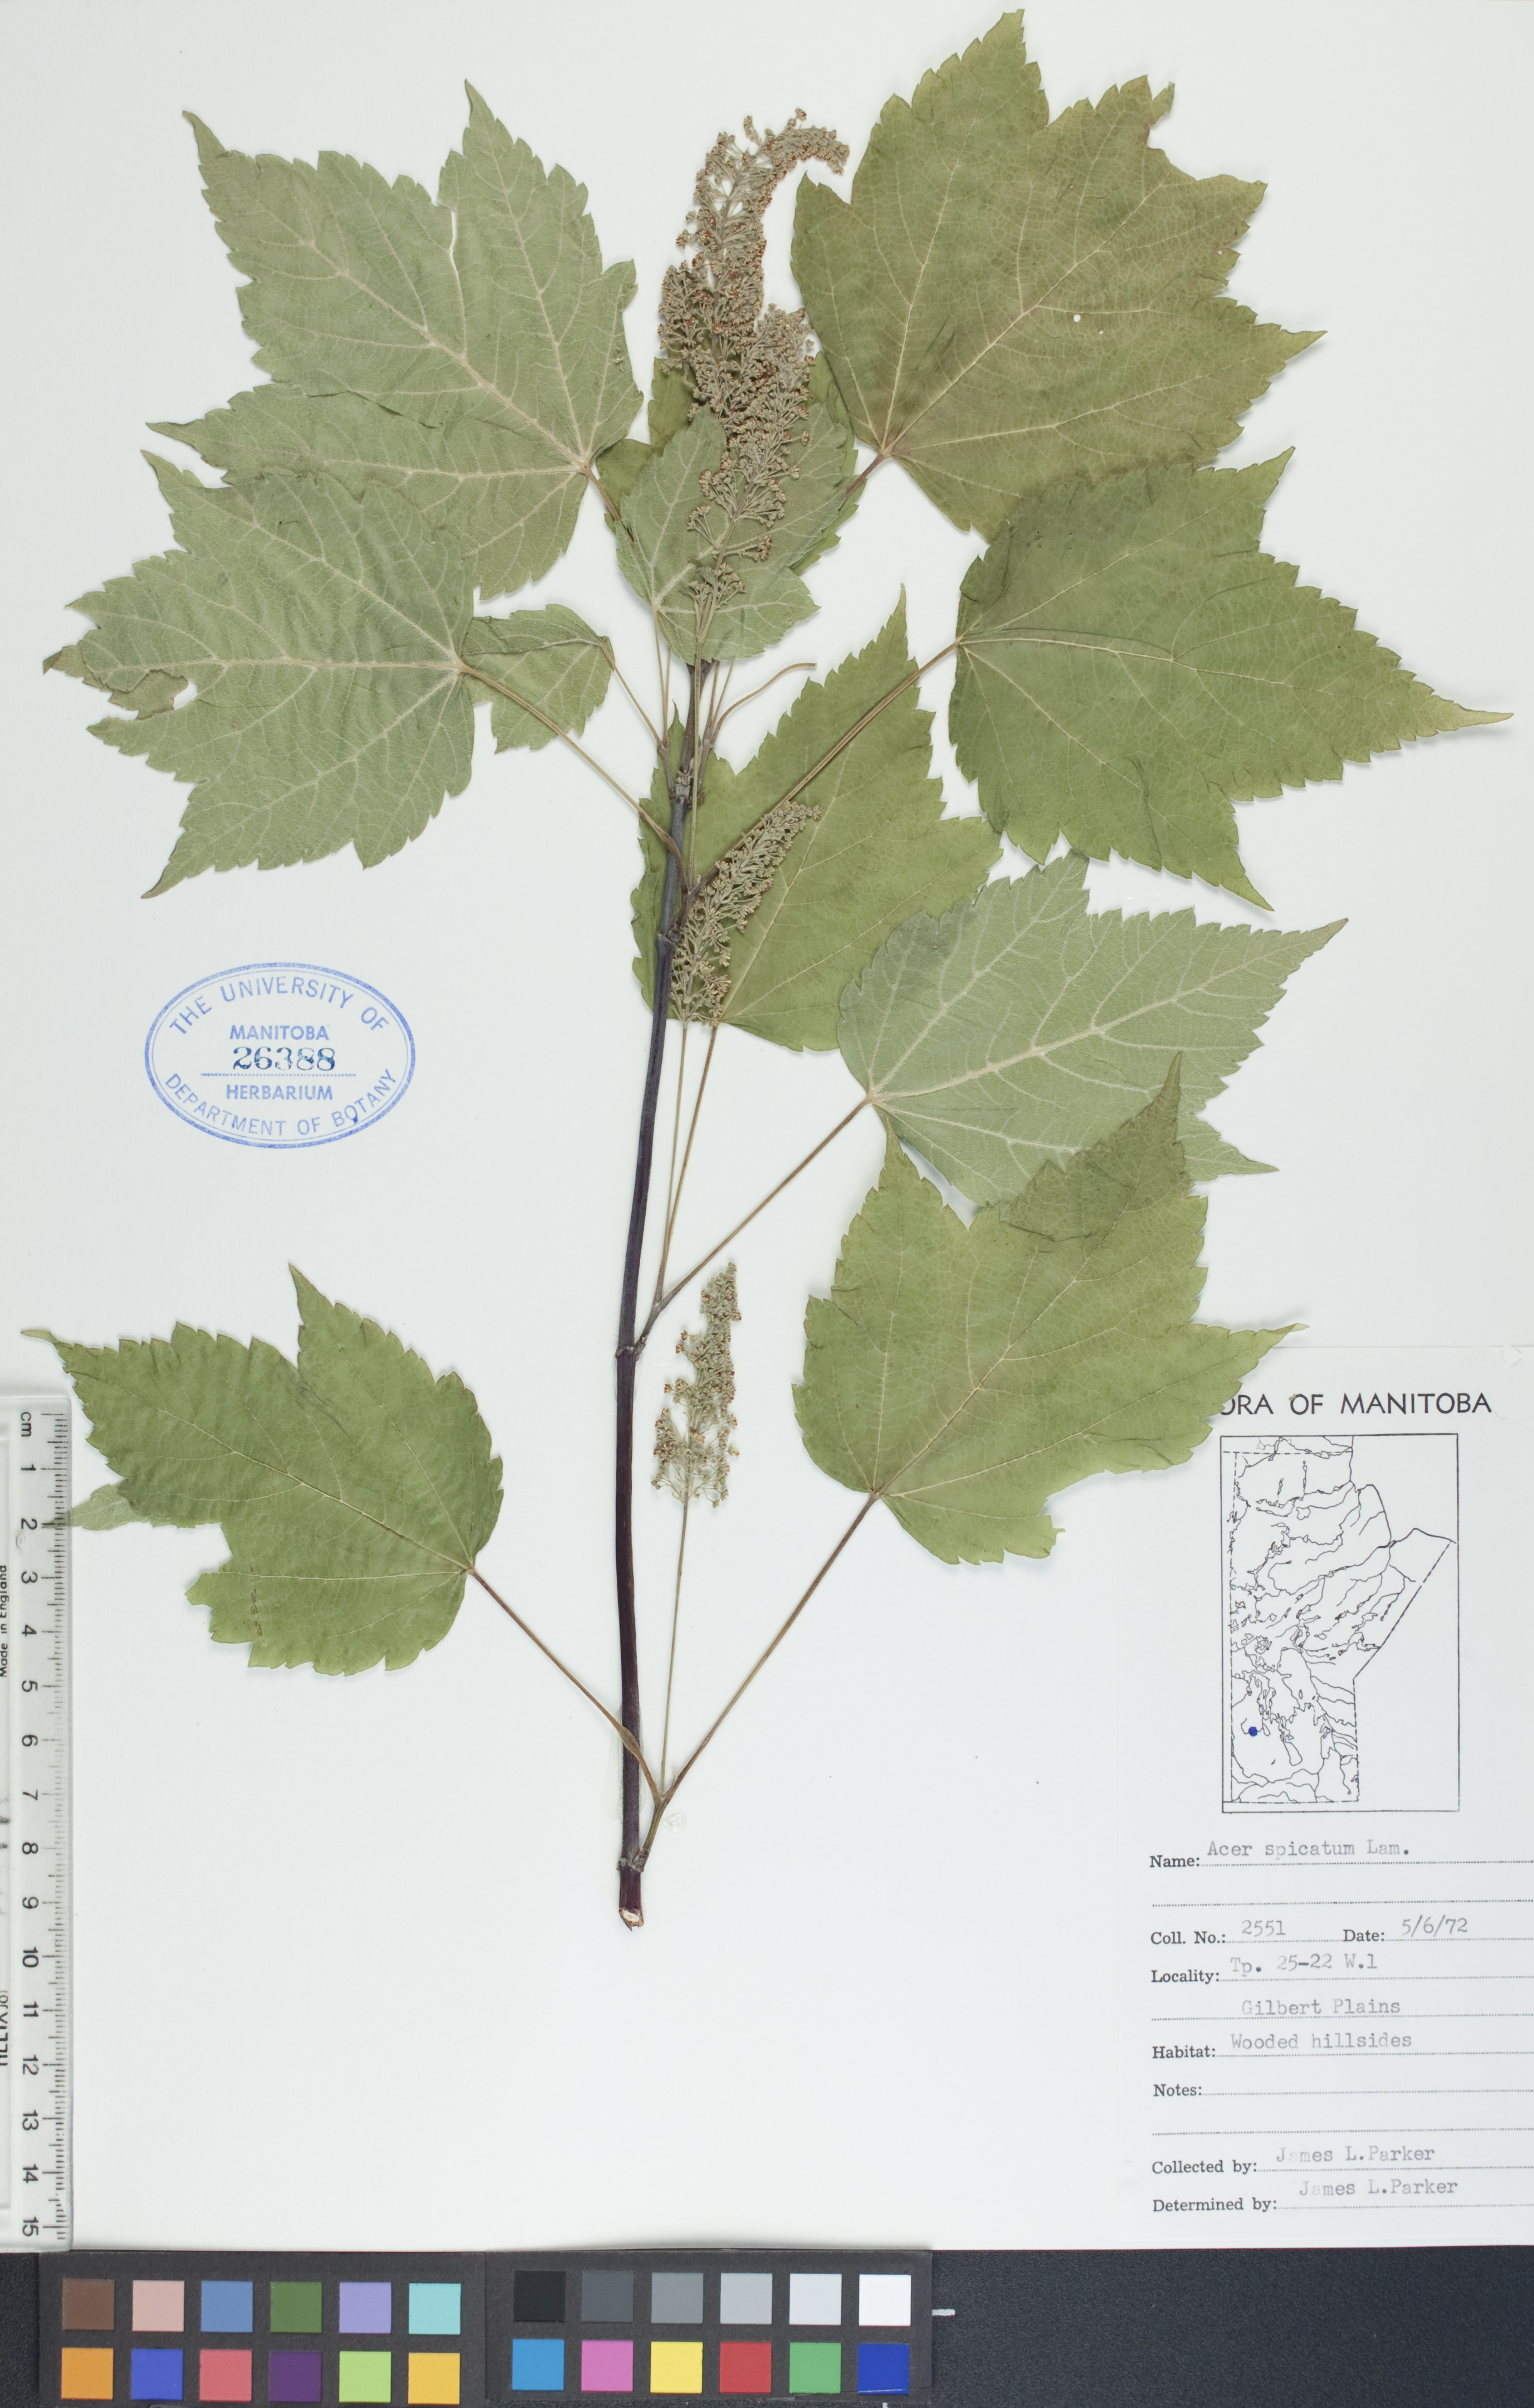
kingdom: Plantae
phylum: Tracheophyta
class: Magnoliopsida
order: Sapindales
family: Sapindaceae
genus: Acer
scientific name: Acer spicatum
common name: Mountain maple
